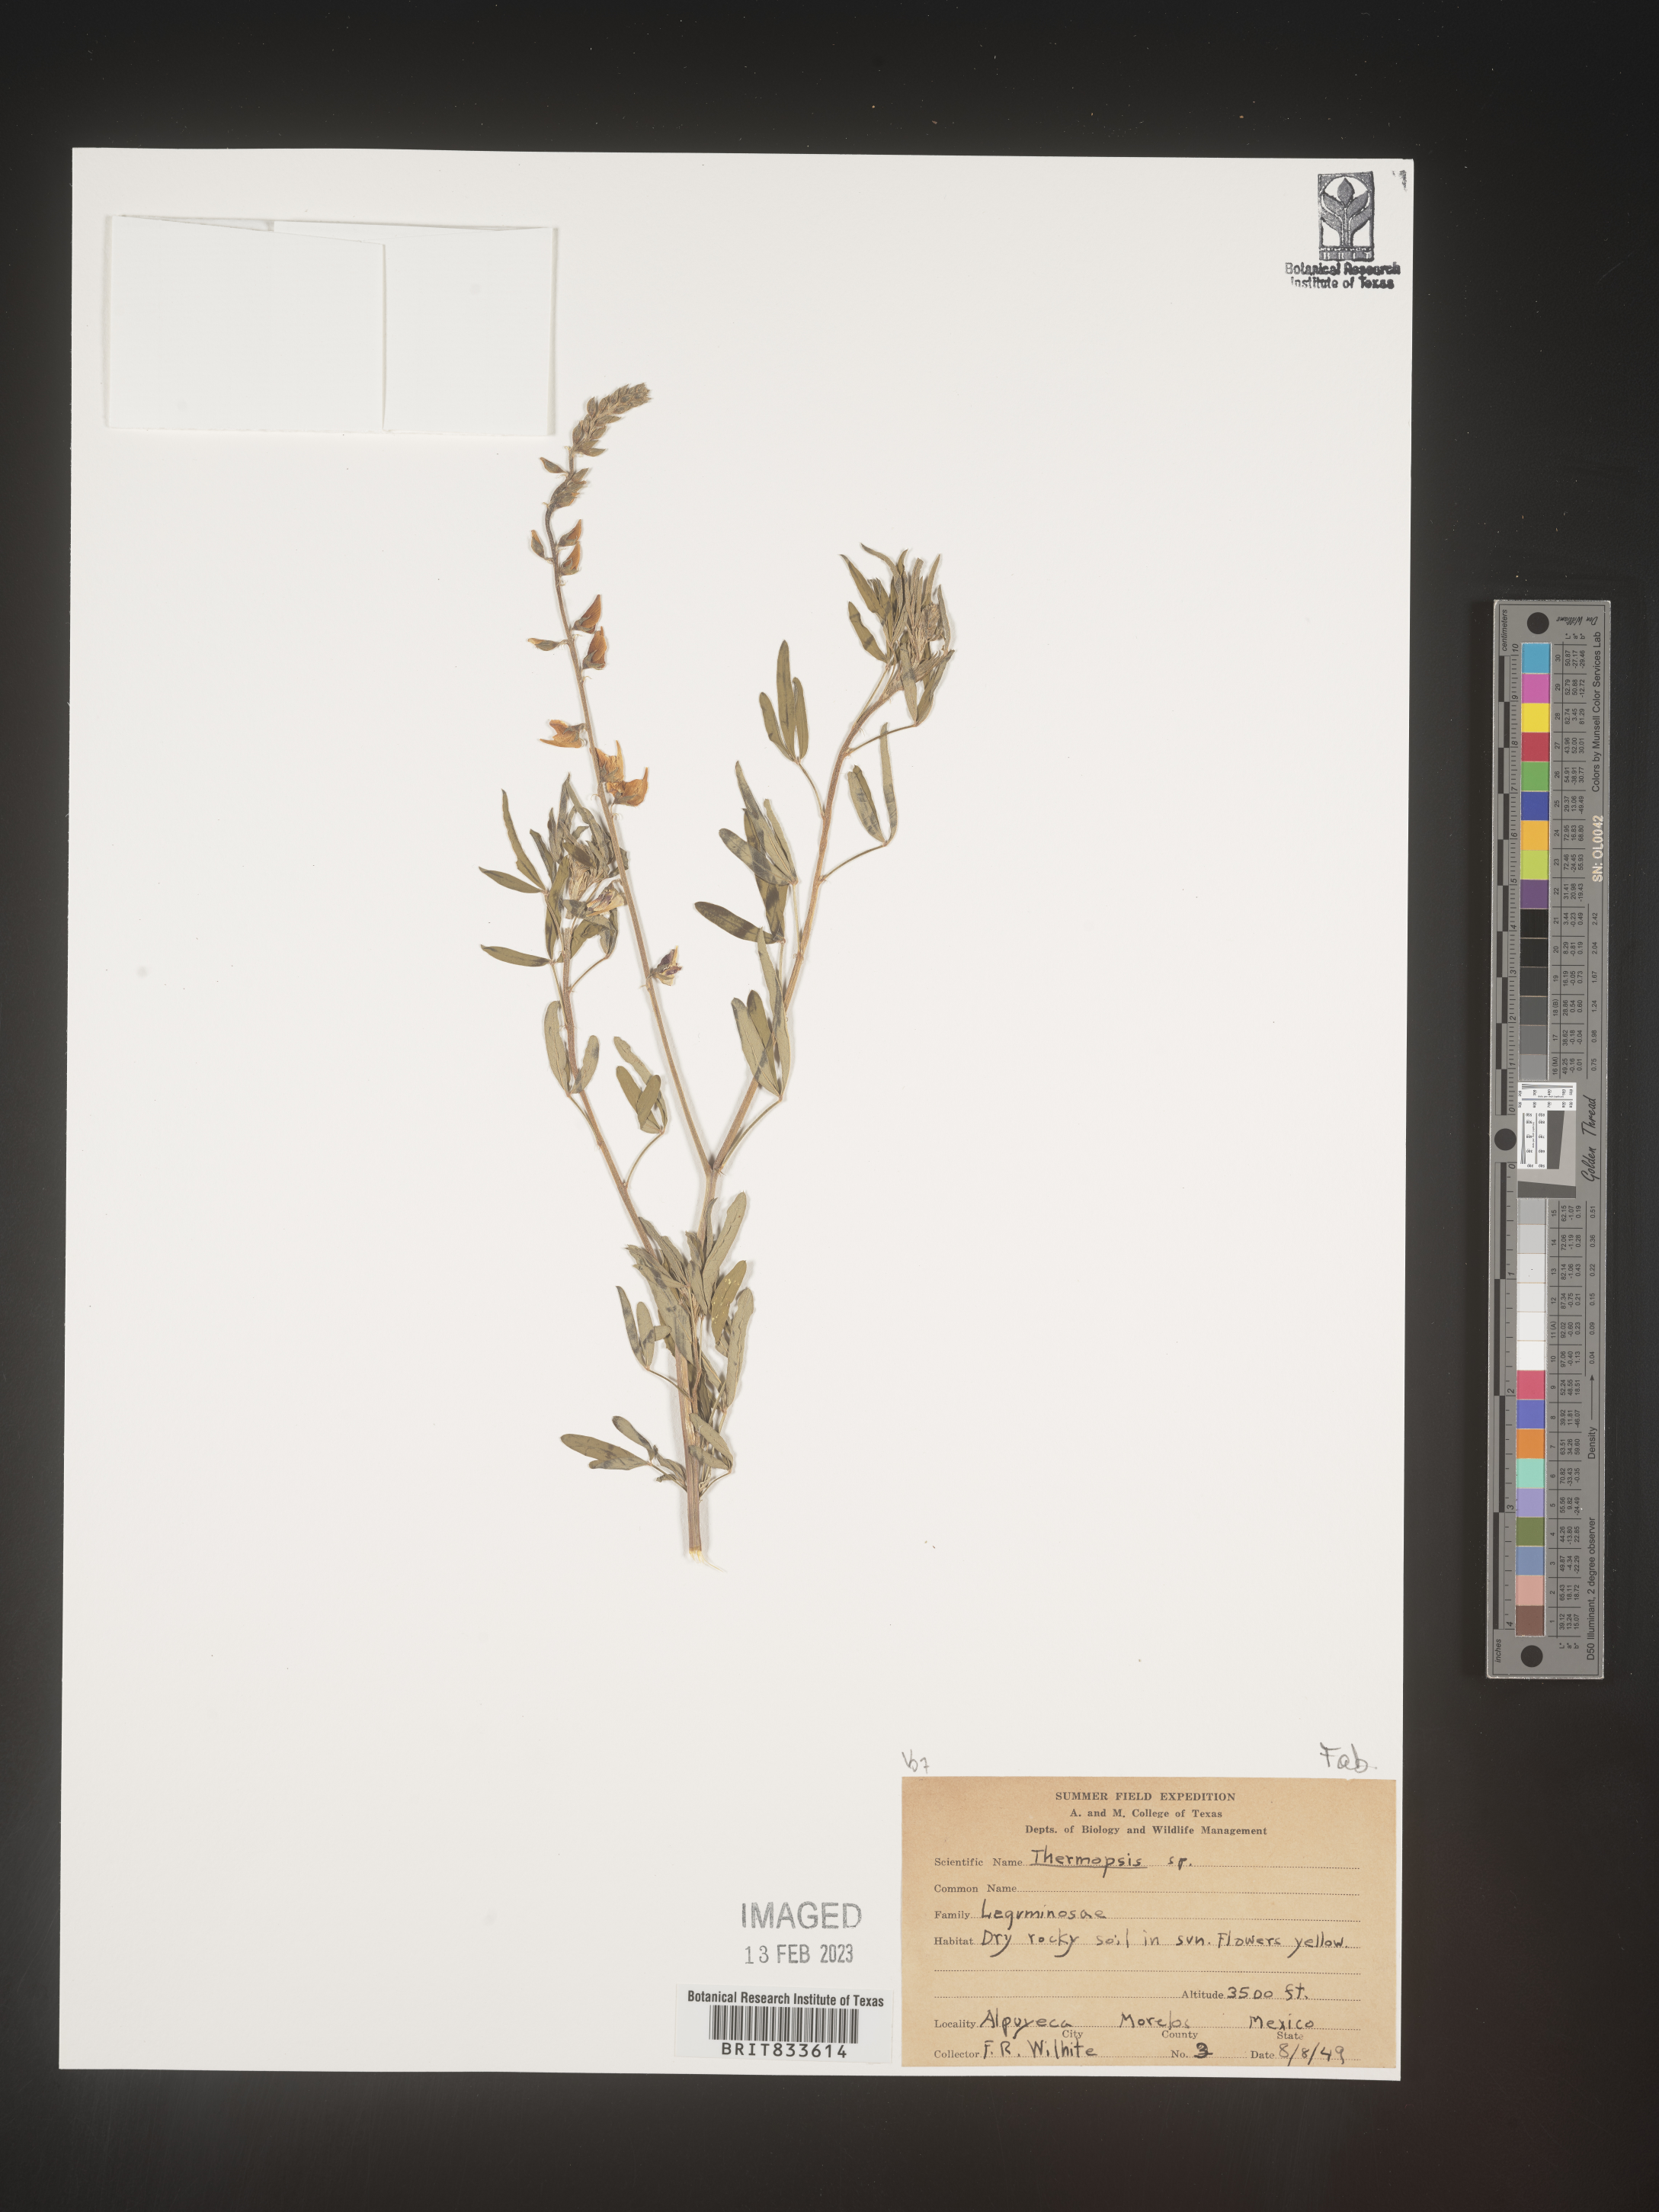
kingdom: Plantae
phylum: Tracheophyta
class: Magnoliopsida
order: Fabales
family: Fabaceae
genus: Thermopsis
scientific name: Thermopsis
